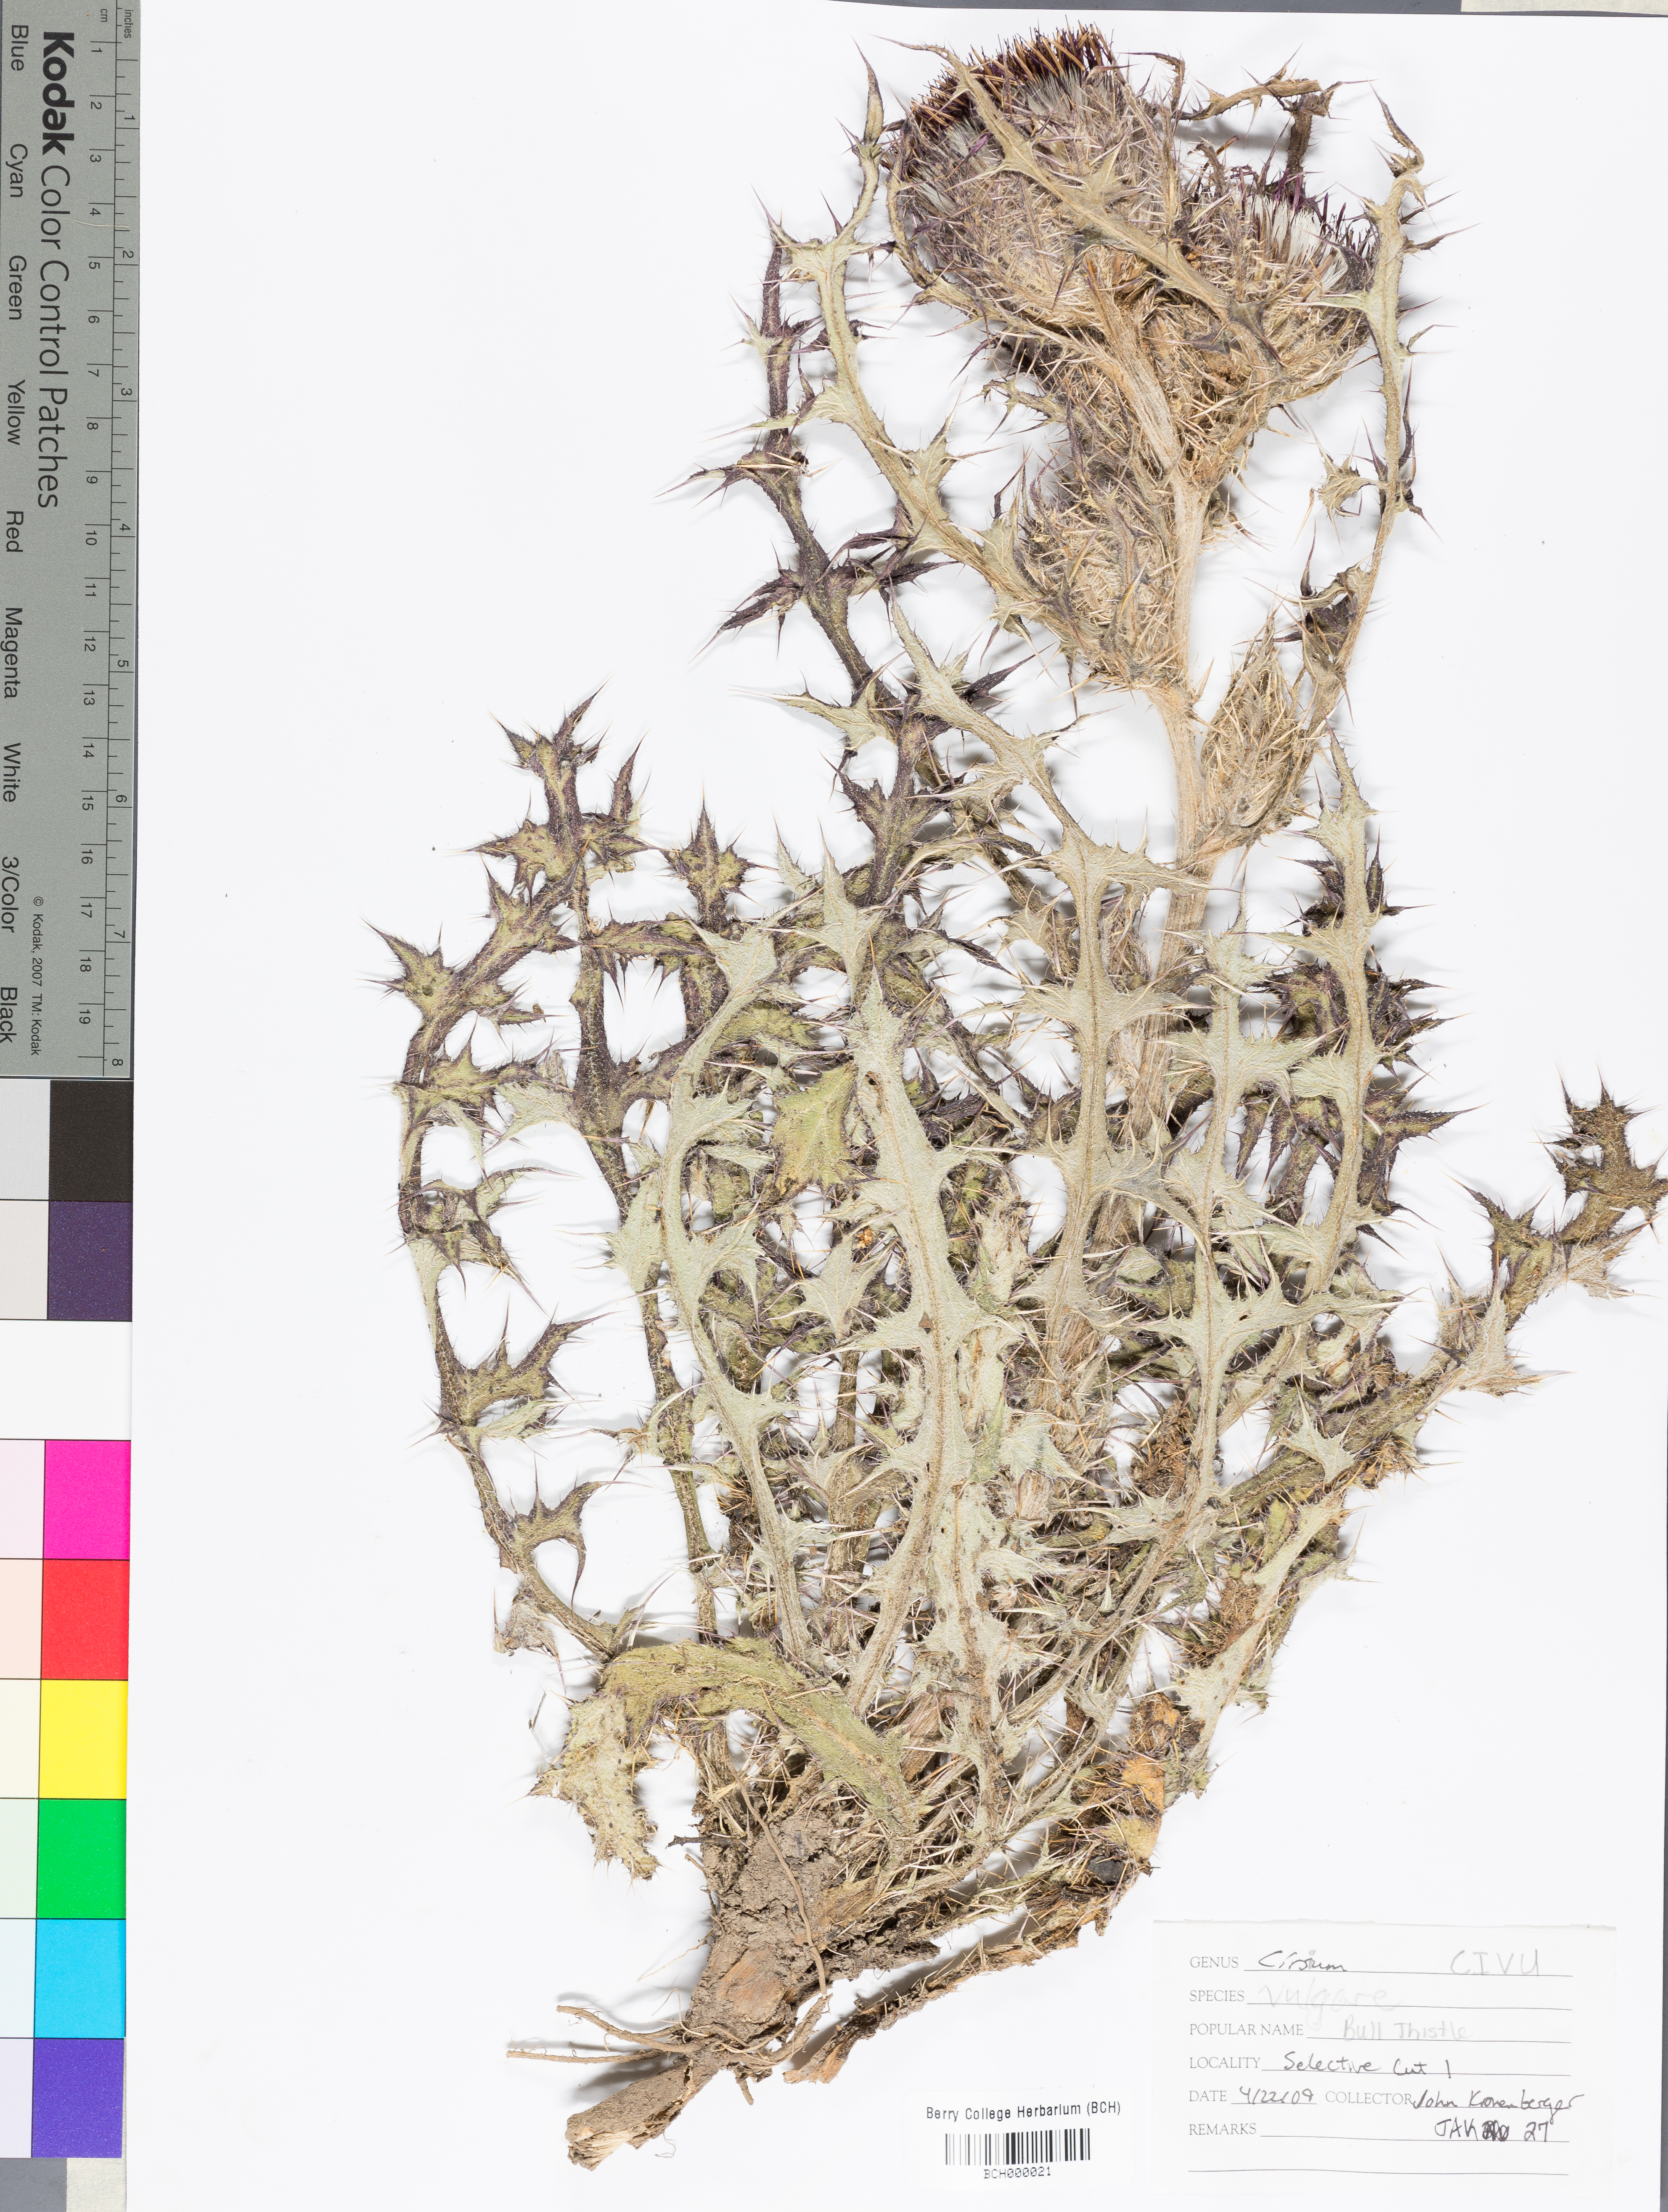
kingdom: Plantae
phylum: Tracheophyta
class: Magnoliopsida
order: Asterales
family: Asteraceae
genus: Cirsium
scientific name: Cirsium vulgare
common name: Bull thistle
